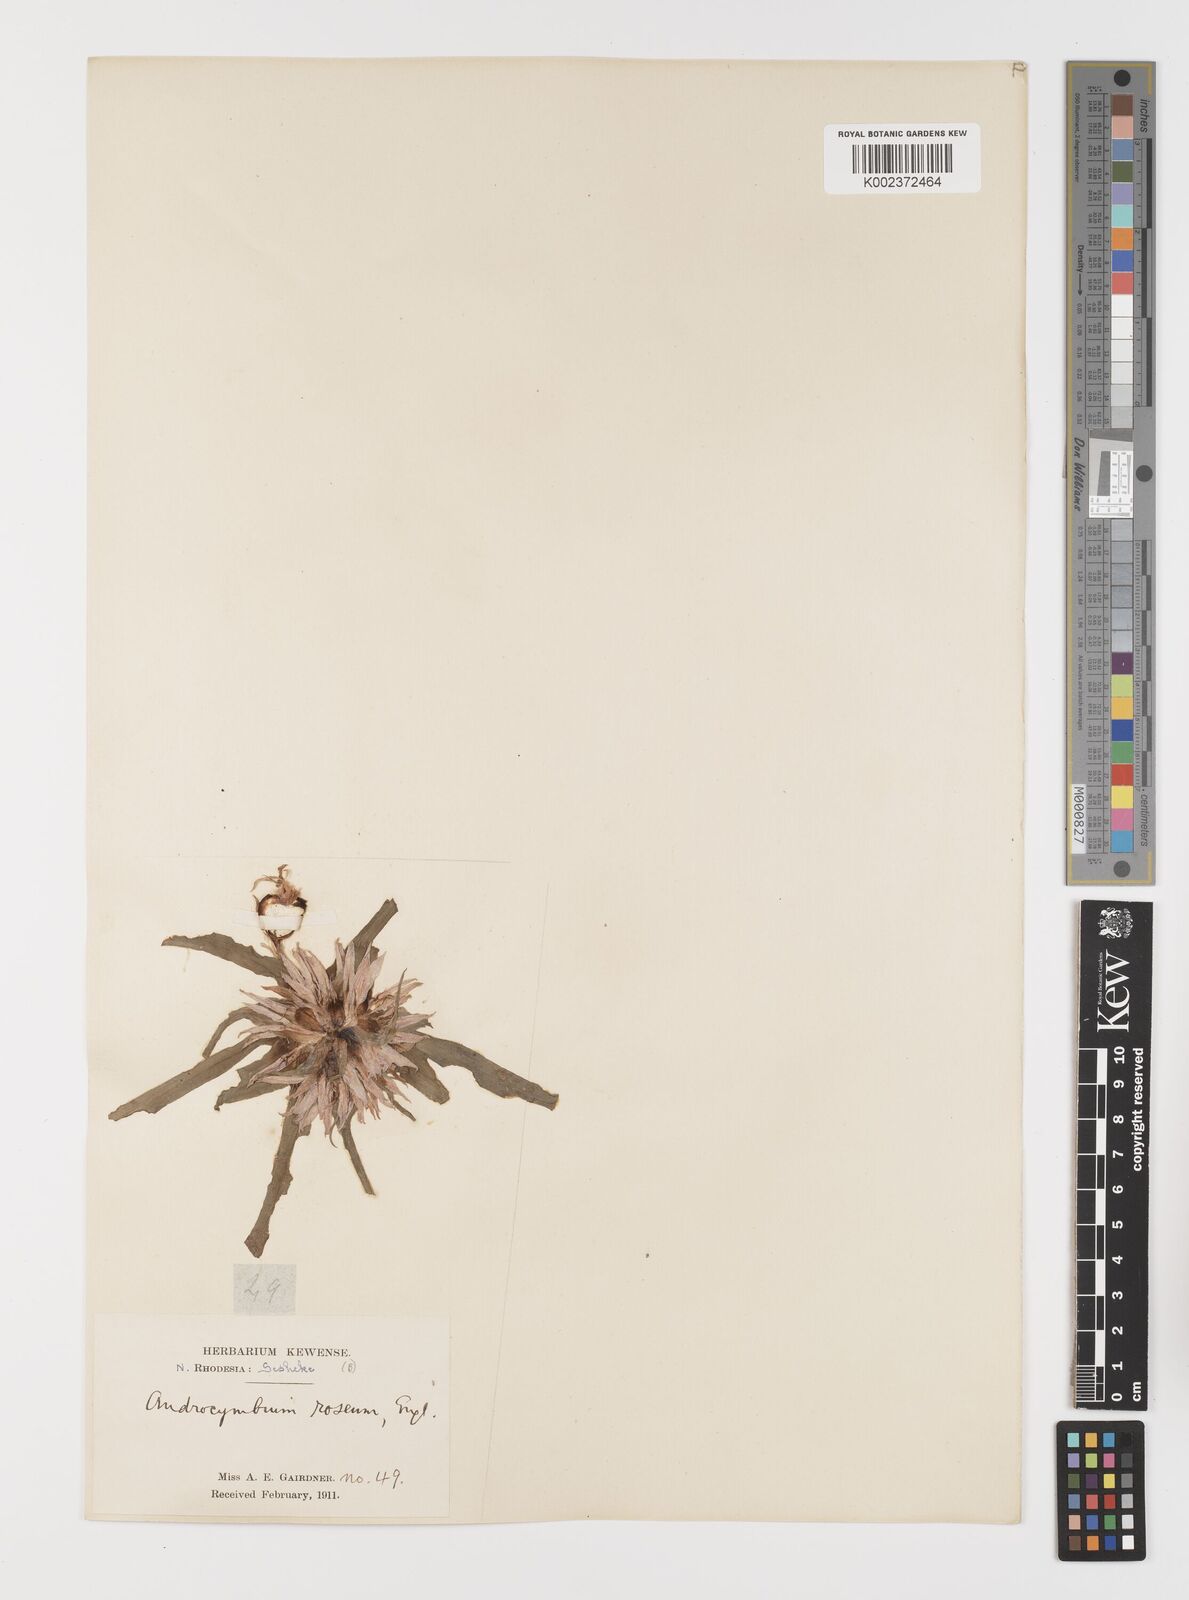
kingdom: Plantae
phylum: Tracheophyta
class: Liliopsida
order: Liliales
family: Colchicaceae
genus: Colchicum
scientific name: Colchicum roseum
